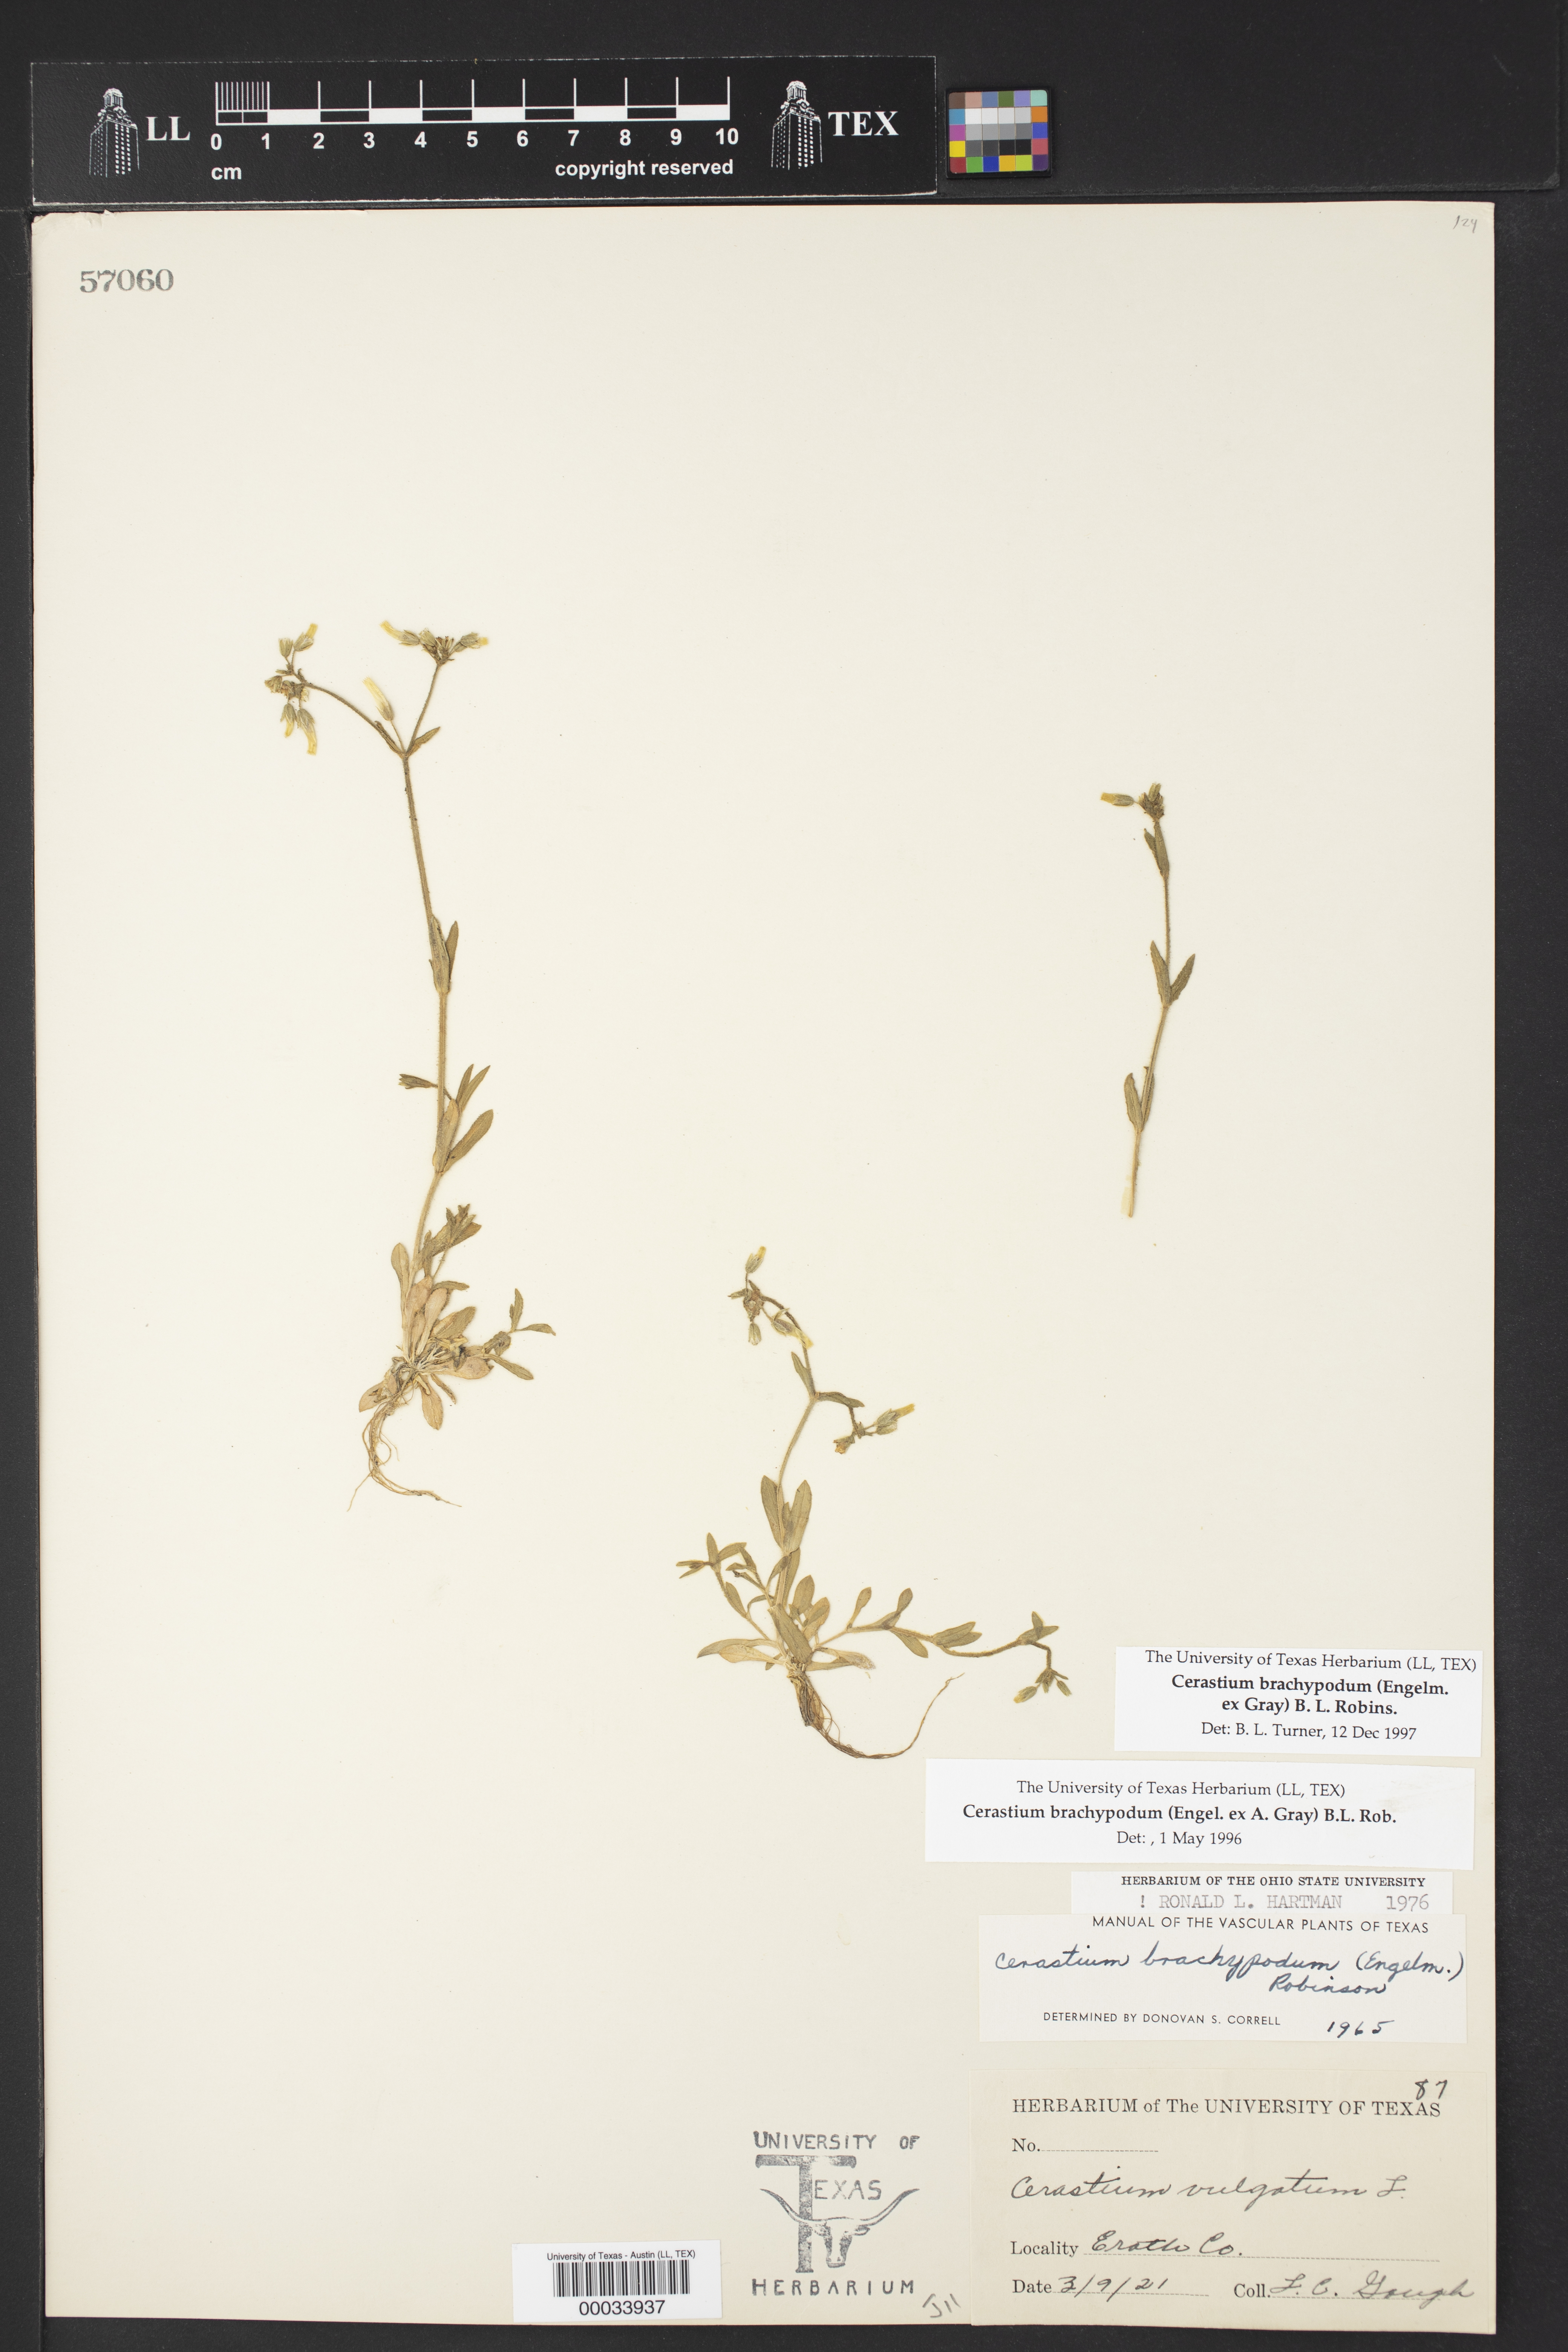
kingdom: Plantae
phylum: Tracheophyta
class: Magnoliopsida
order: Caryophyllales
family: Caryophyllaceae
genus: Cerastium
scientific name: Cerastium brachypodum
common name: Short-pedicelled nodding chickweed
